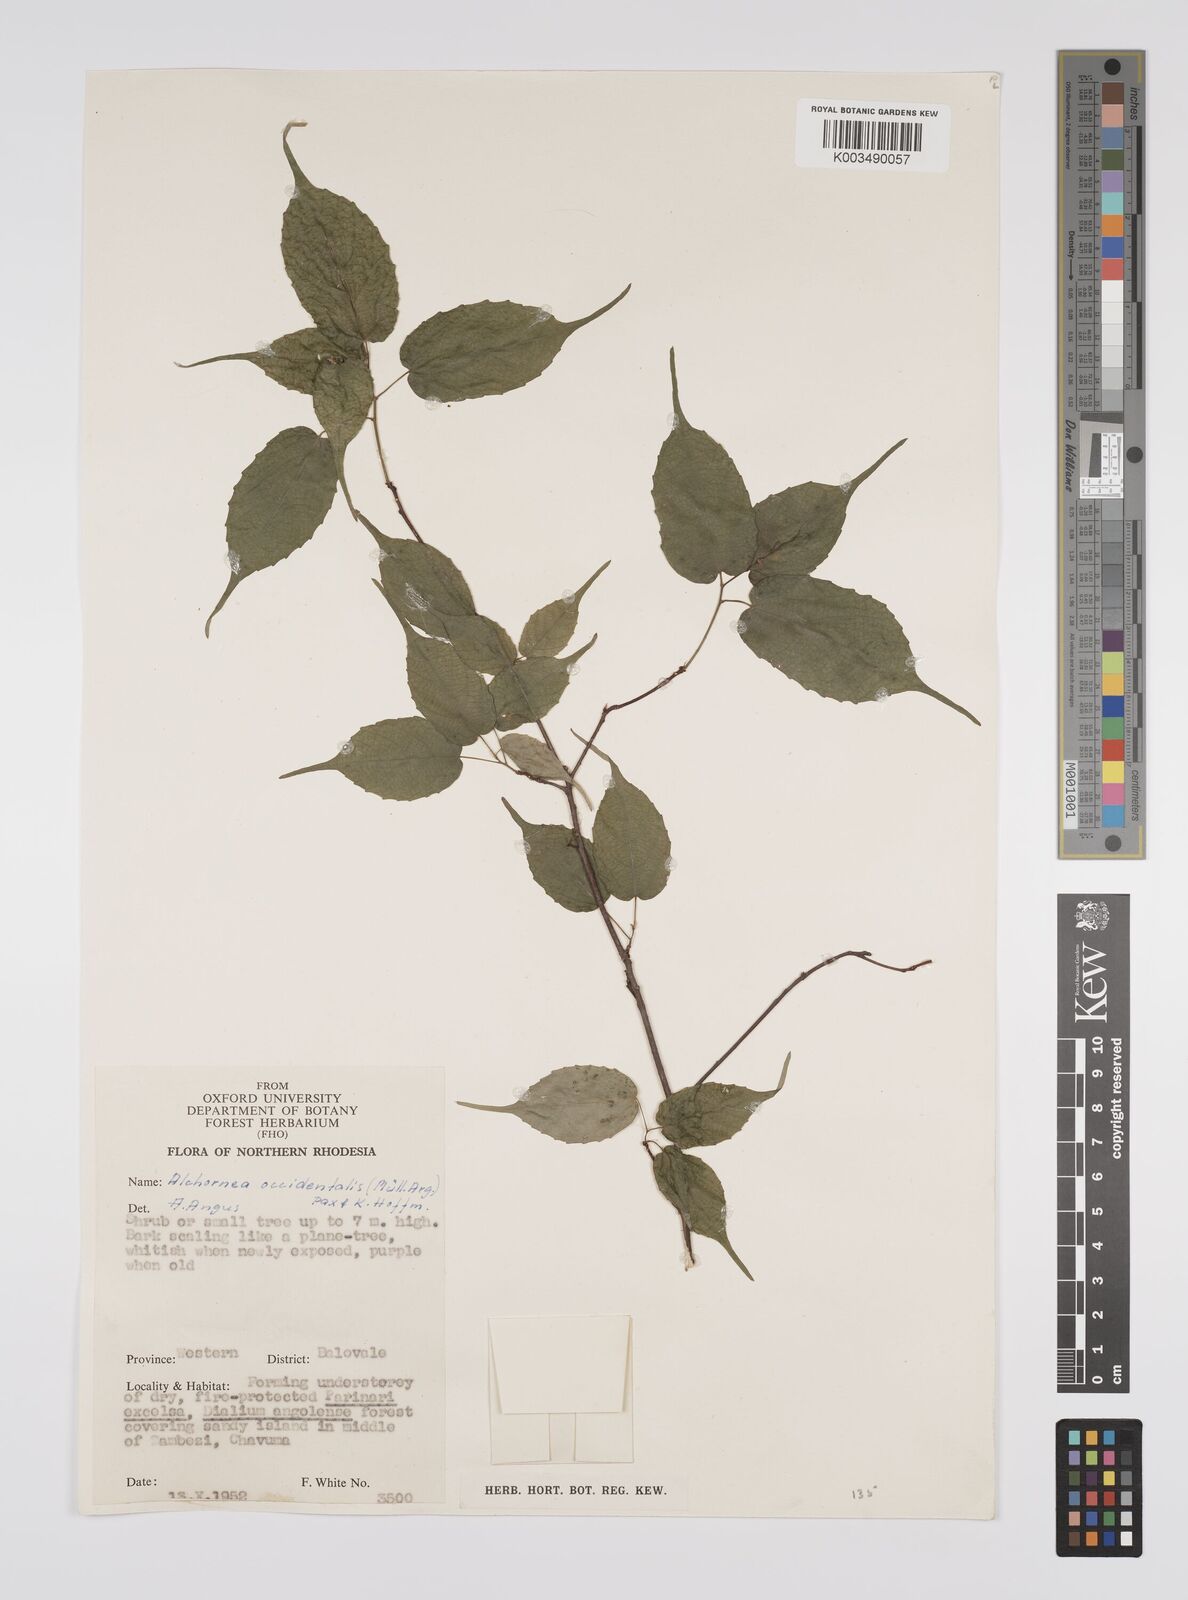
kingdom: Plantae
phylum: Tracheophyta
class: Magnoliopsida
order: Malpighiales
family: Euphorbiaceae
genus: Alchornea
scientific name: Alchornea occidentalis
